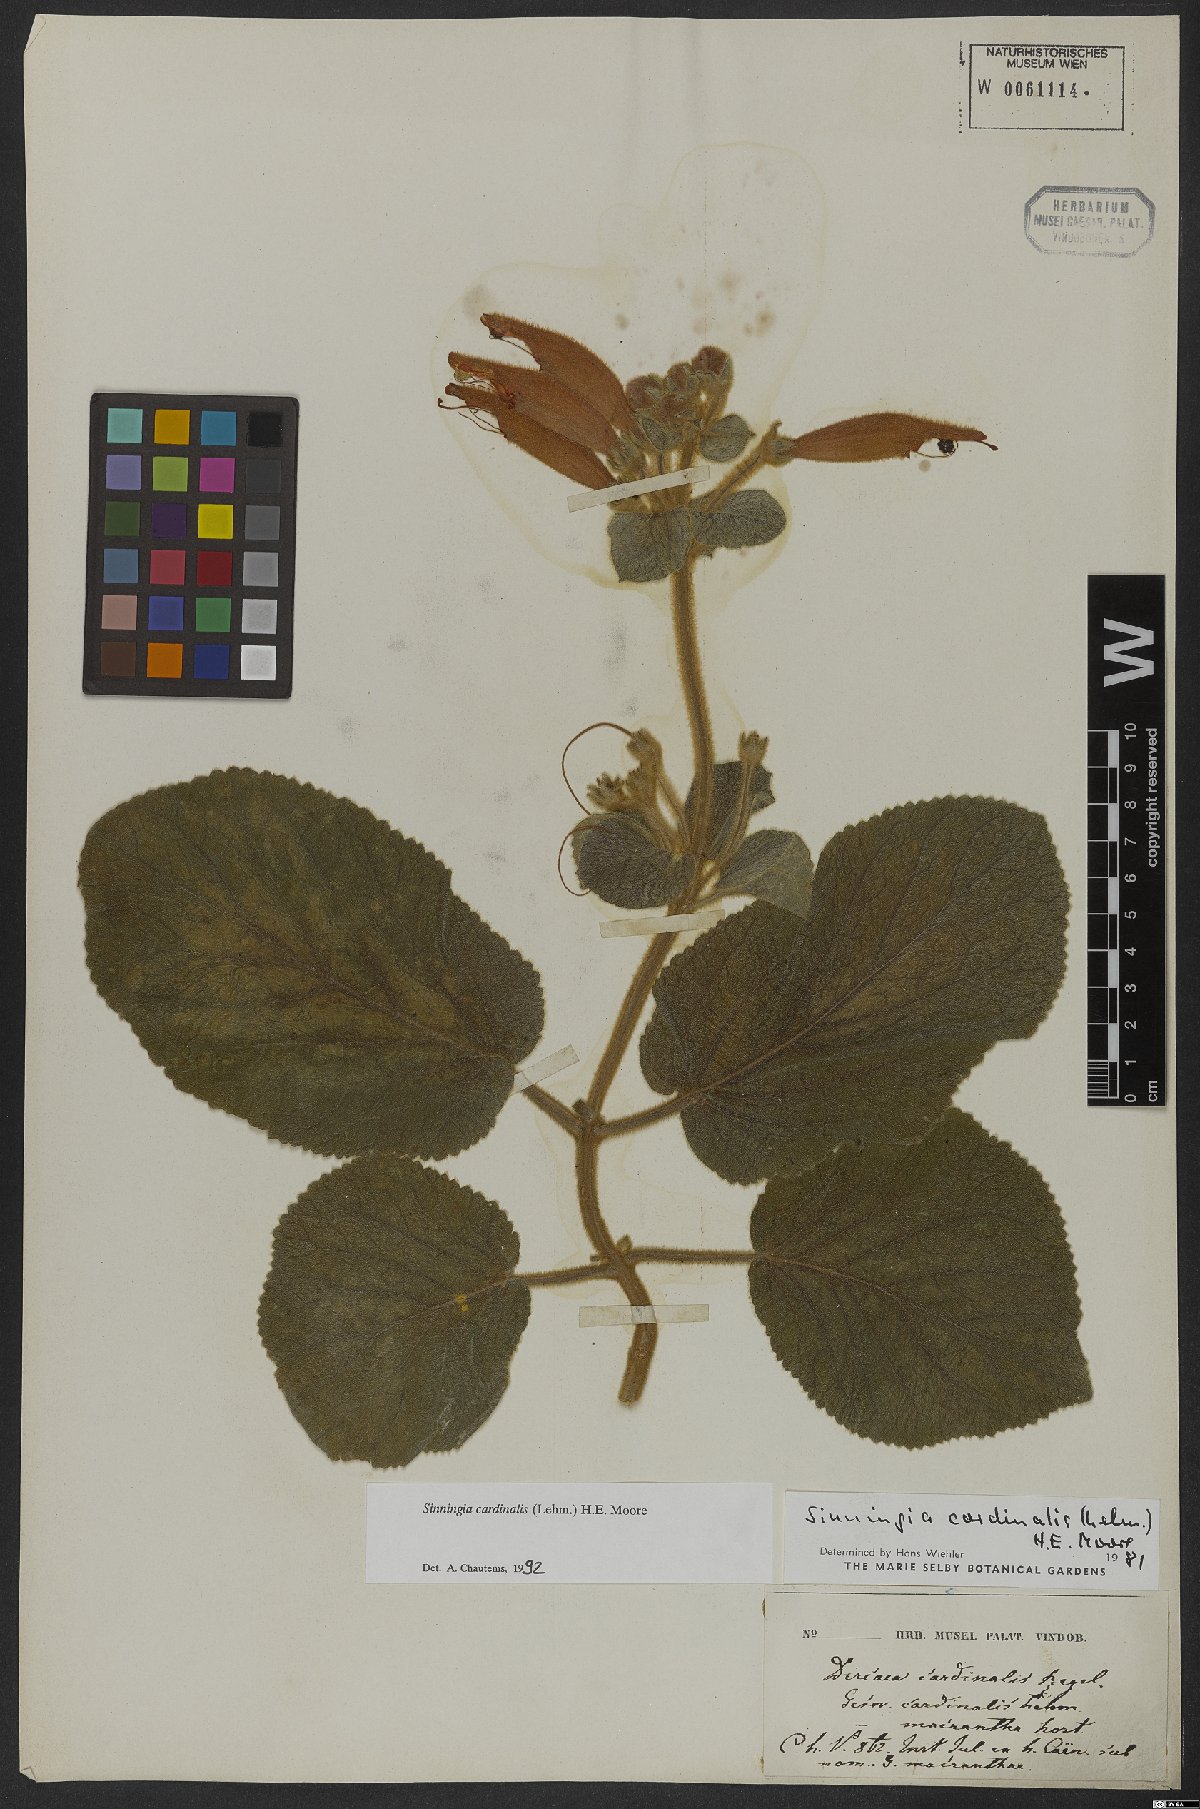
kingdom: Plantae
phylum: Tracheophyta
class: Magnoliopsida
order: Lamiales
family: Gesneriaceae
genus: Sinningia
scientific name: Sinningia cardinalis
